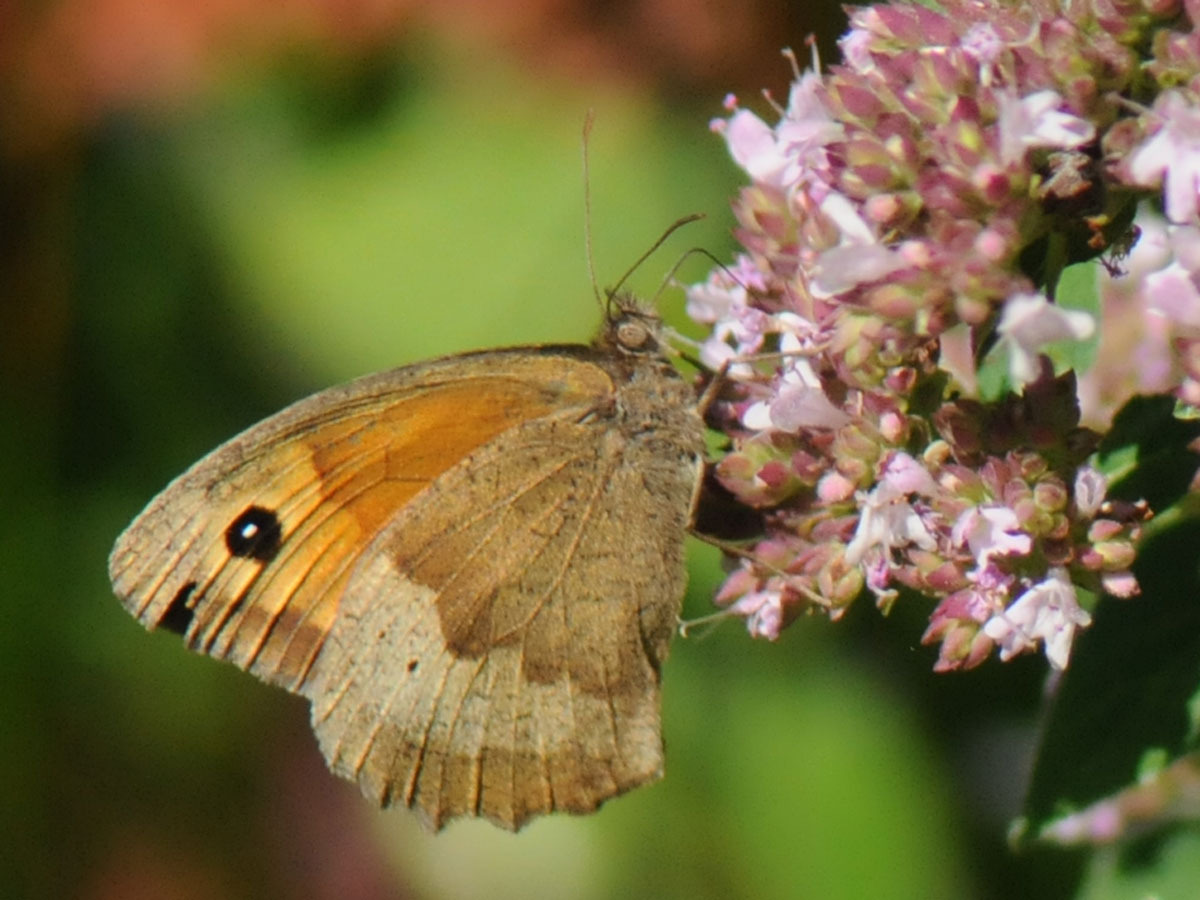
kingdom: Animalia
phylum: Arthropoda
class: Insecta
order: Lepidoptera
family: Nymphalidae
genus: Maniola
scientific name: Maniola jurtina
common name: Græsrandøje
